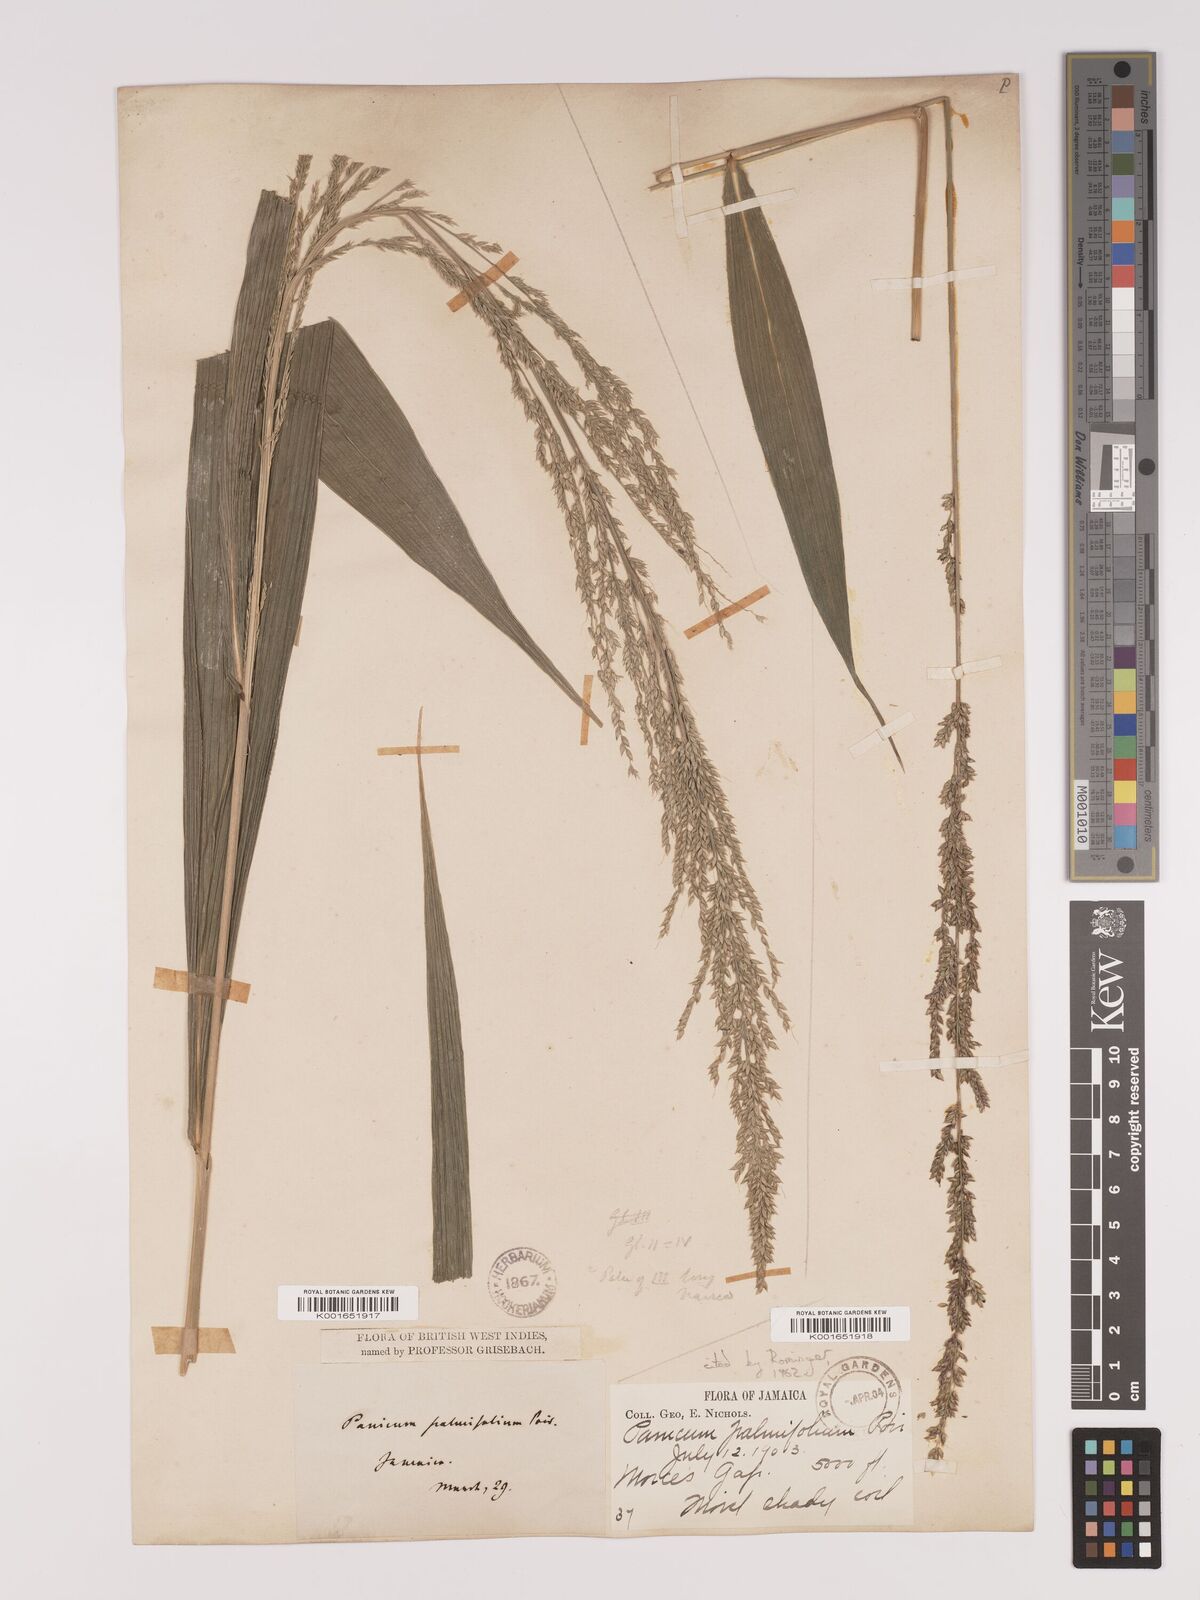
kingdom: Plantae
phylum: Tracheophyta
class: Liliopsida
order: Poales
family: Poaceae
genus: Setaria
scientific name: Setaria palmifolia
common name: Broadleaved bristlegrass
